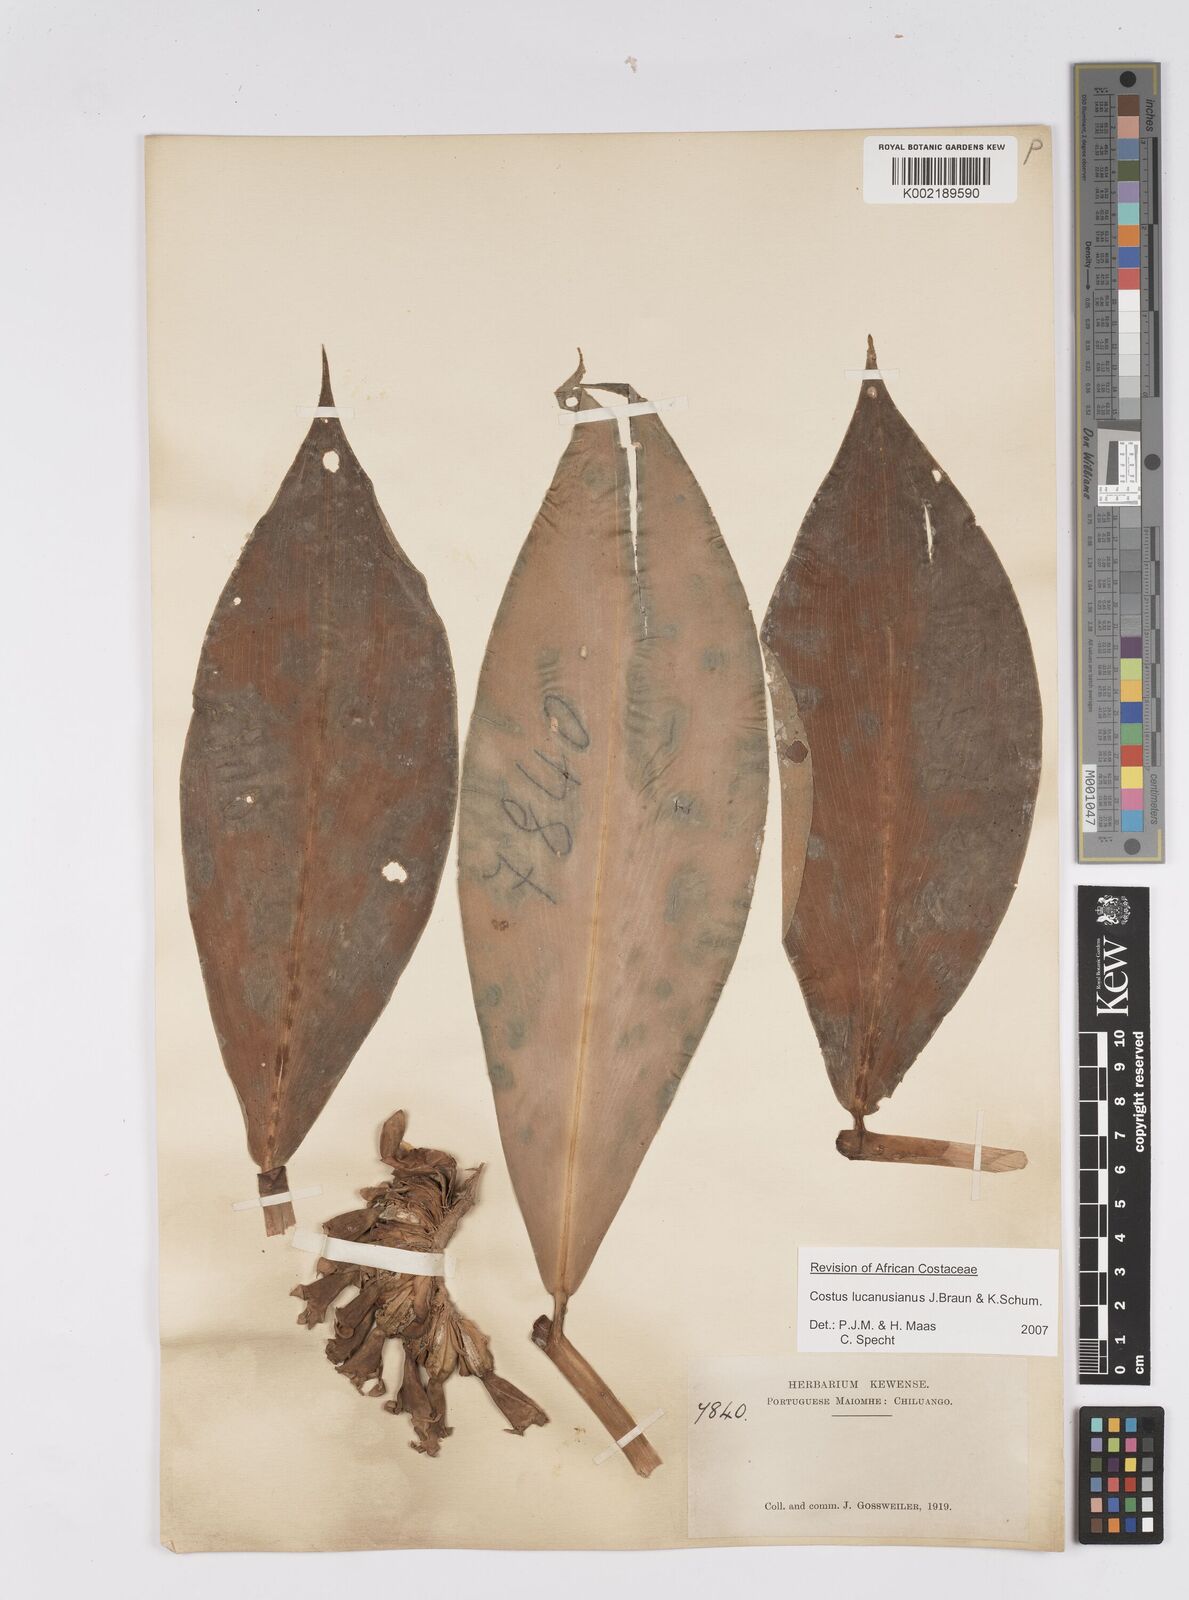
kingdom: Plantae
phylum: Tracheophyta
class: Liliopsida
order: Zingiberales
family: Costaceae
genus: Costus
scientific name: Costus lucanusianus
